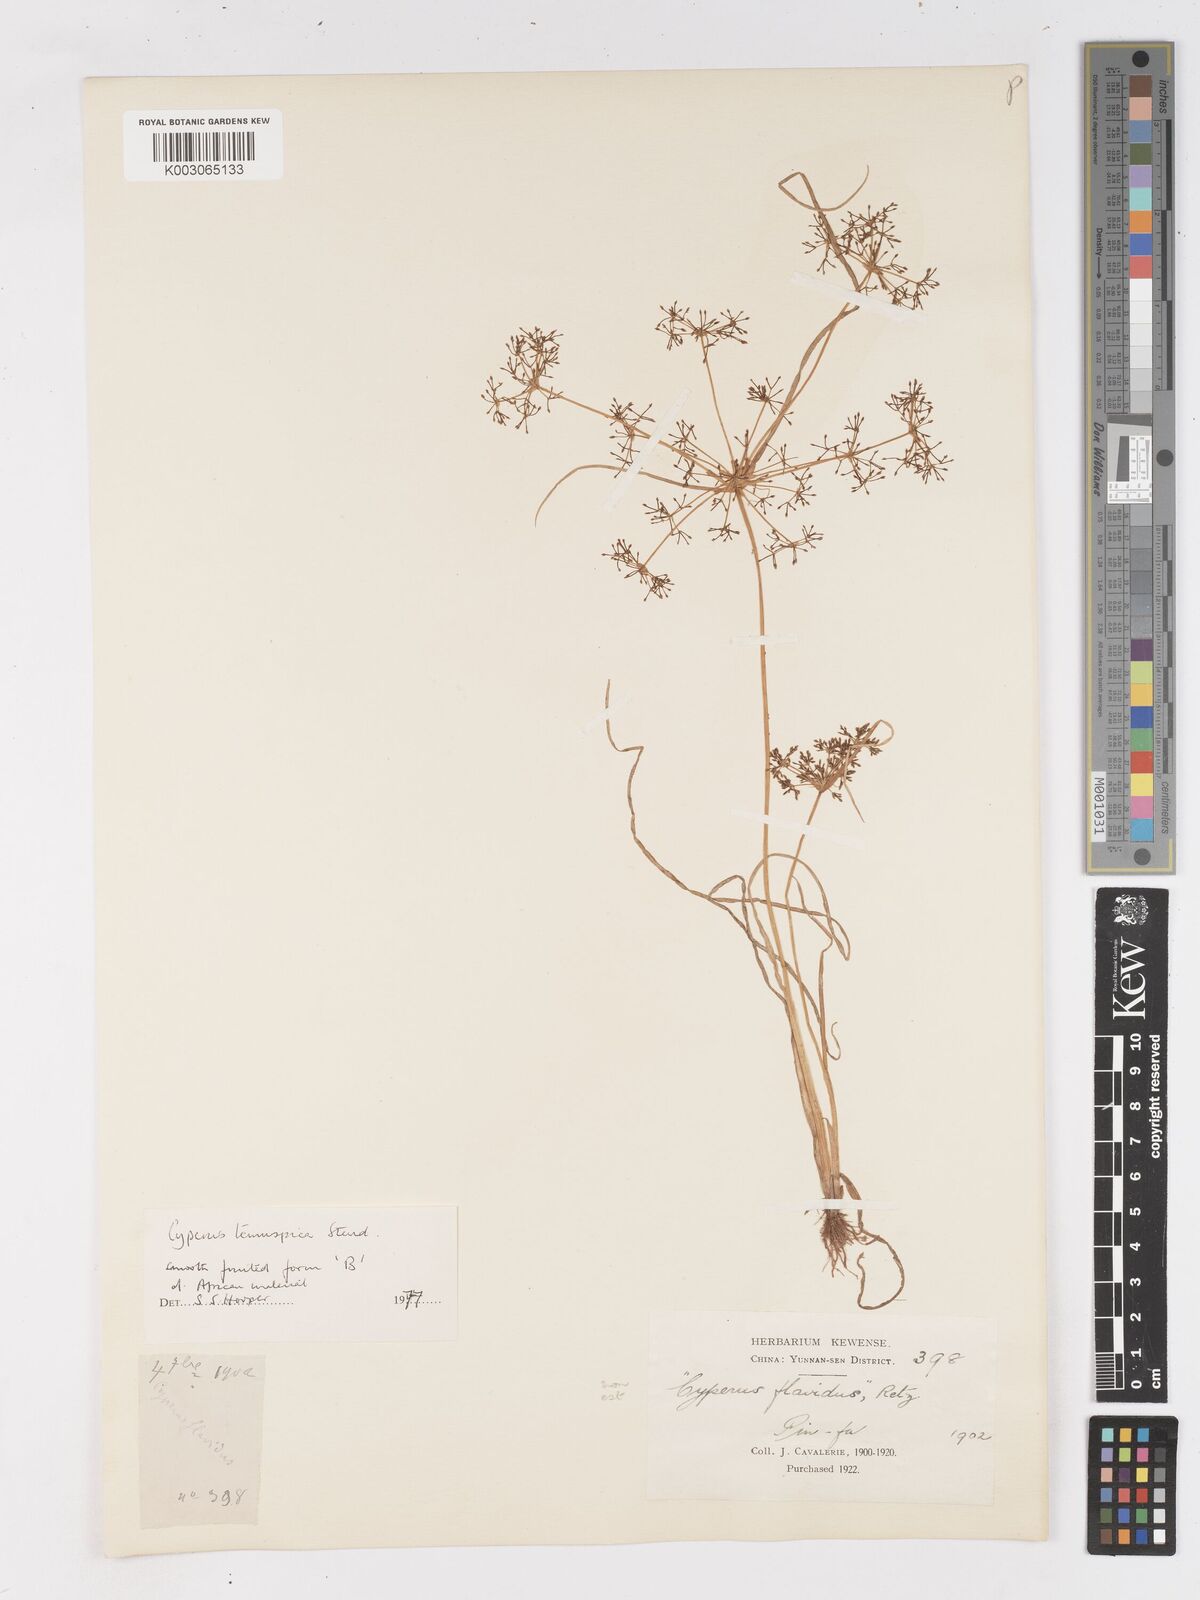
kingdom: Plantae
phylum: Tracheophyta
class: Liliopsida
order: Poales
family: Cyperaceae
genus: Cyperus
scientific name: Cyperus tenuispica
